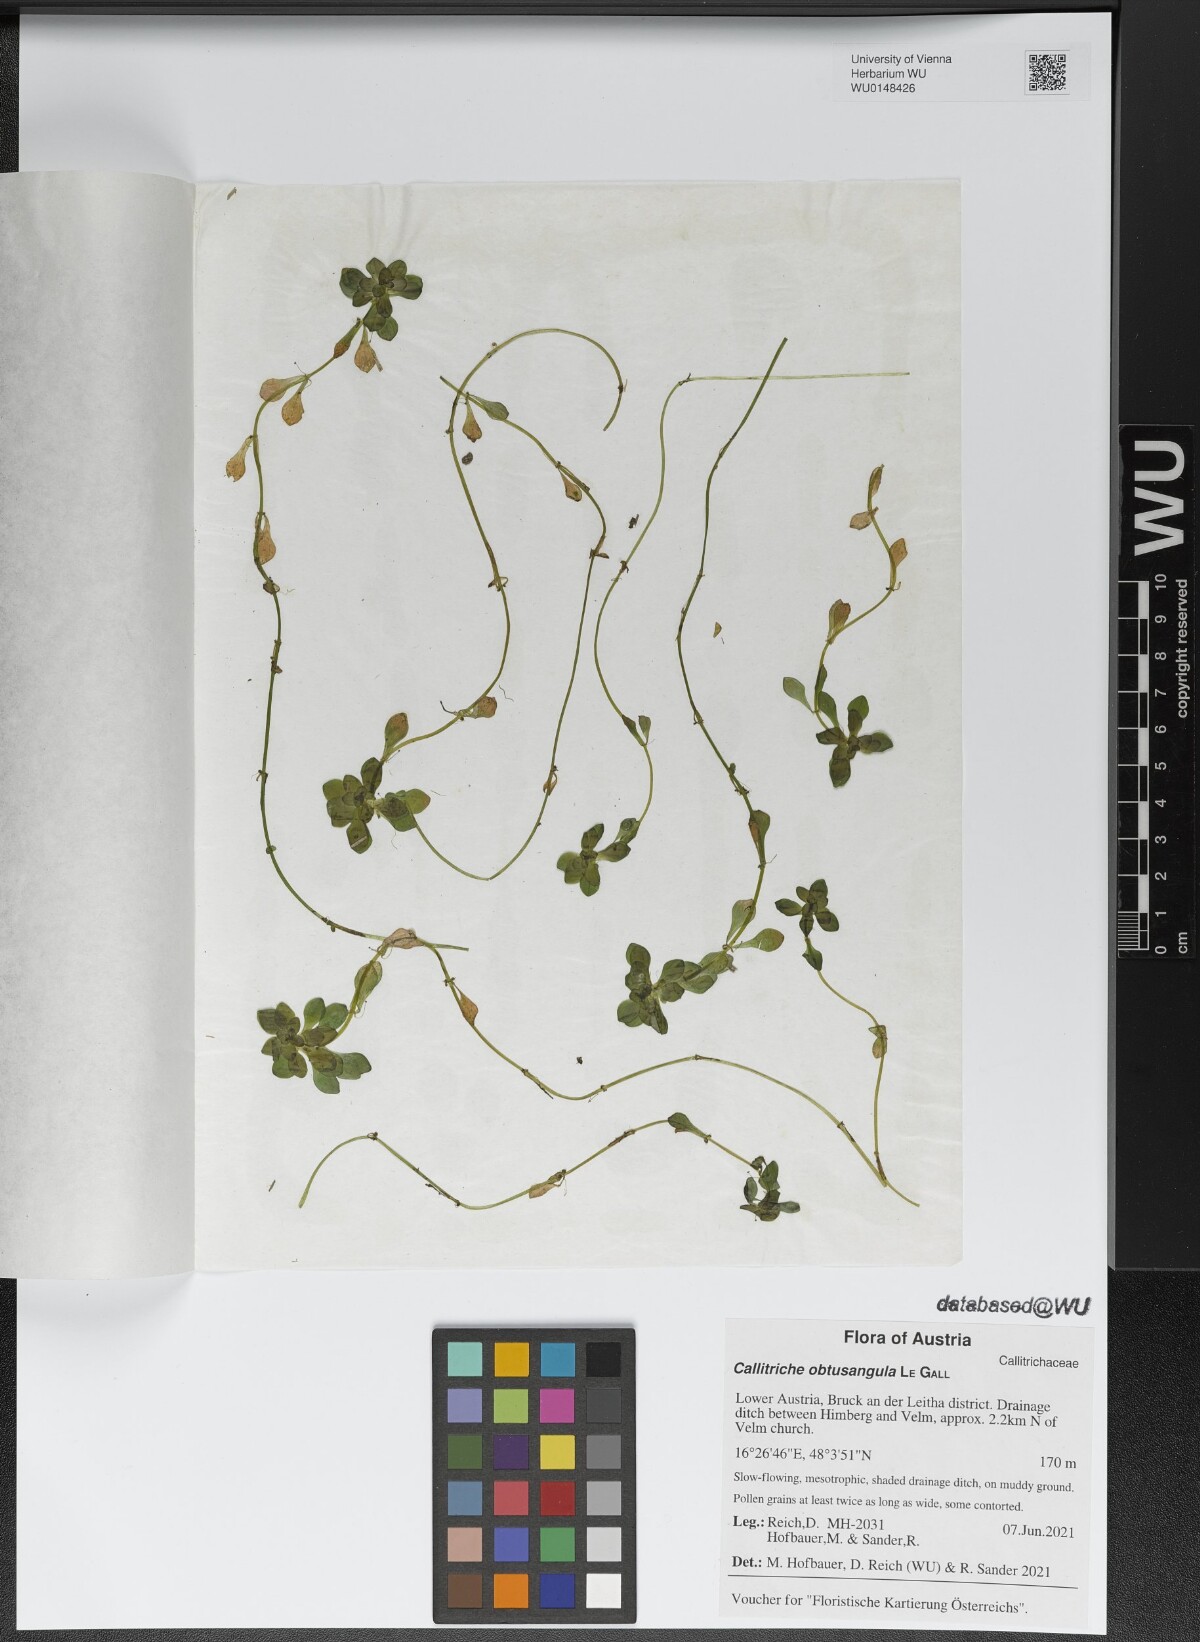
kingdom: Plantae
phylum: Tracheophyta
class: Magnoliopsida
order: Lamiales
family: Plantaginaceae
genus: Callitriche
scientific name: Callitriche obtusangula
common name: Blunt-fruited water-starwort
